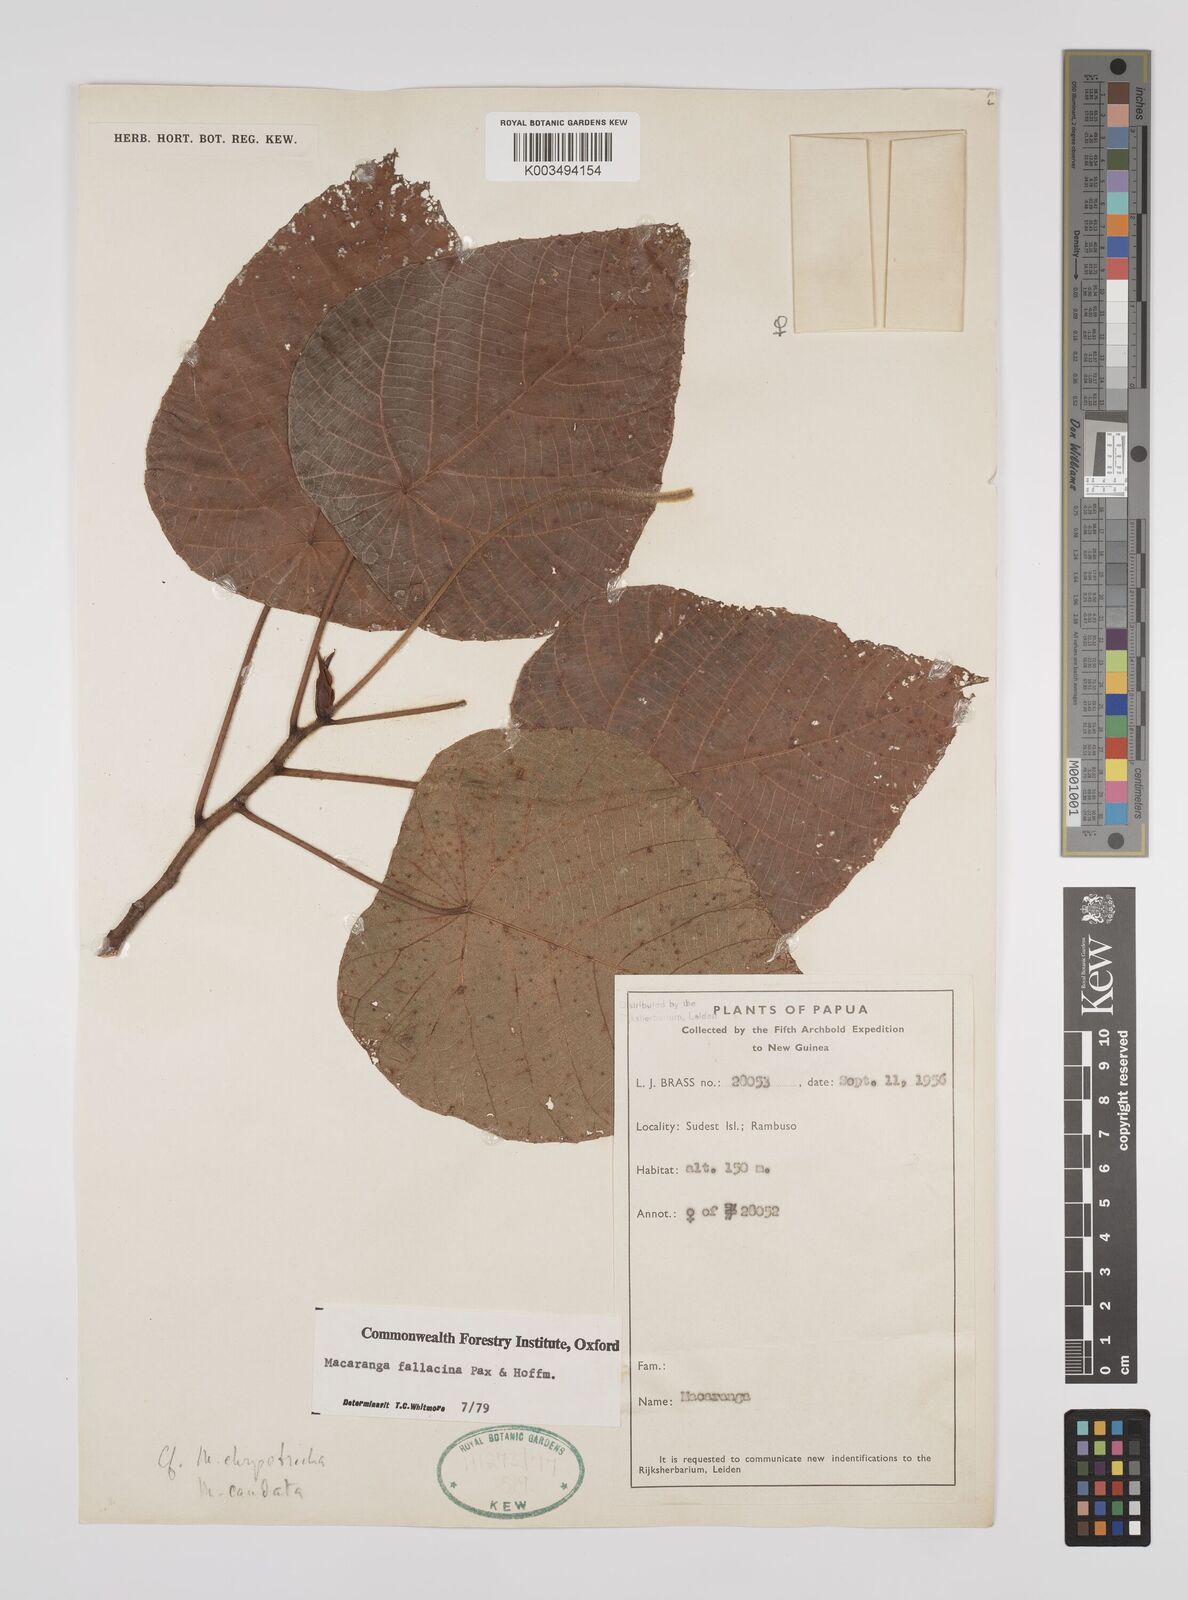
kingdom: Plantae
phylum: Tracheophyta
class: Magnoliopsida
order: Malpighiales
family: Euphorbiaceae
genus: Macaranga
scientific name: Macaranga fallacina
